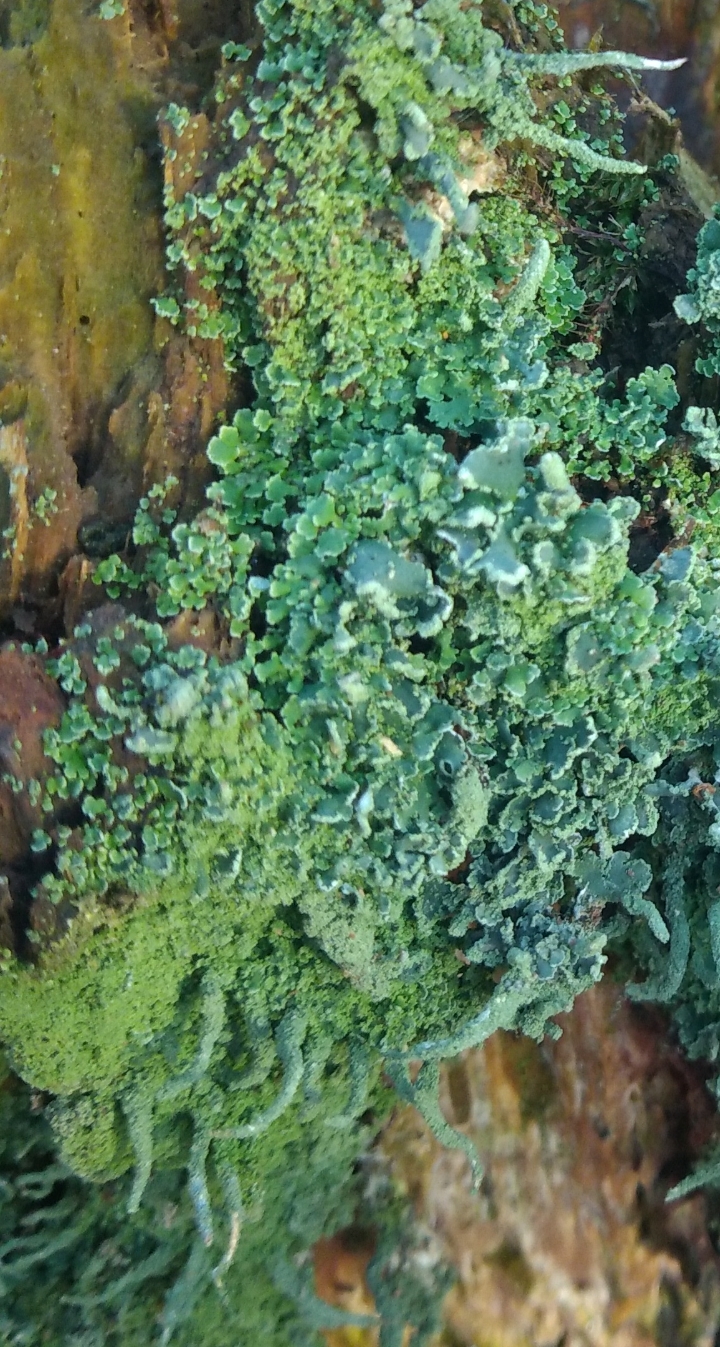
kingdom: Fungi
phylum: Ascomycota
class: Lecanoromycetes
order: Lecanorales
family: Cladoniaceae
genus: Cladonia
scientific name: Cladonia coniocraea
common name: træfods-bægerlav
